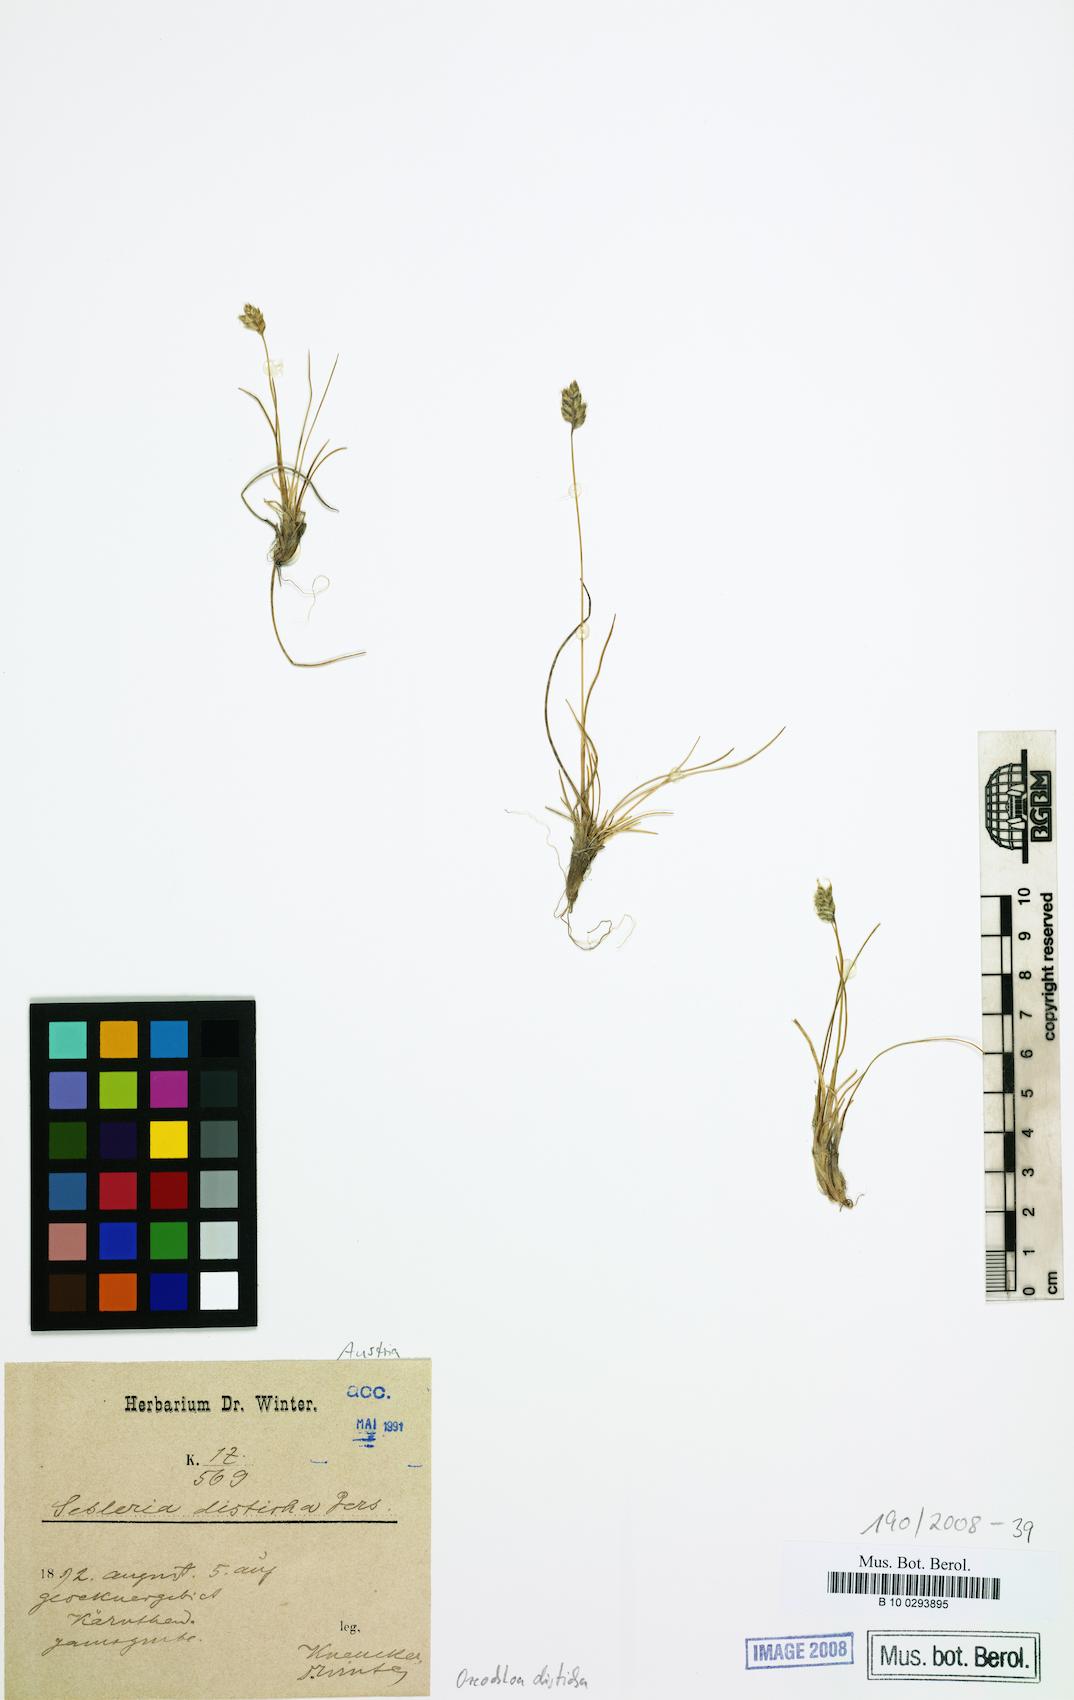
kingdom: Plantae
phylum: Tracheophyta
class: Liliopsida
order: Poales
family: Poaceae
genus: Oreochloa
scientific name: Oreochloa disticha
